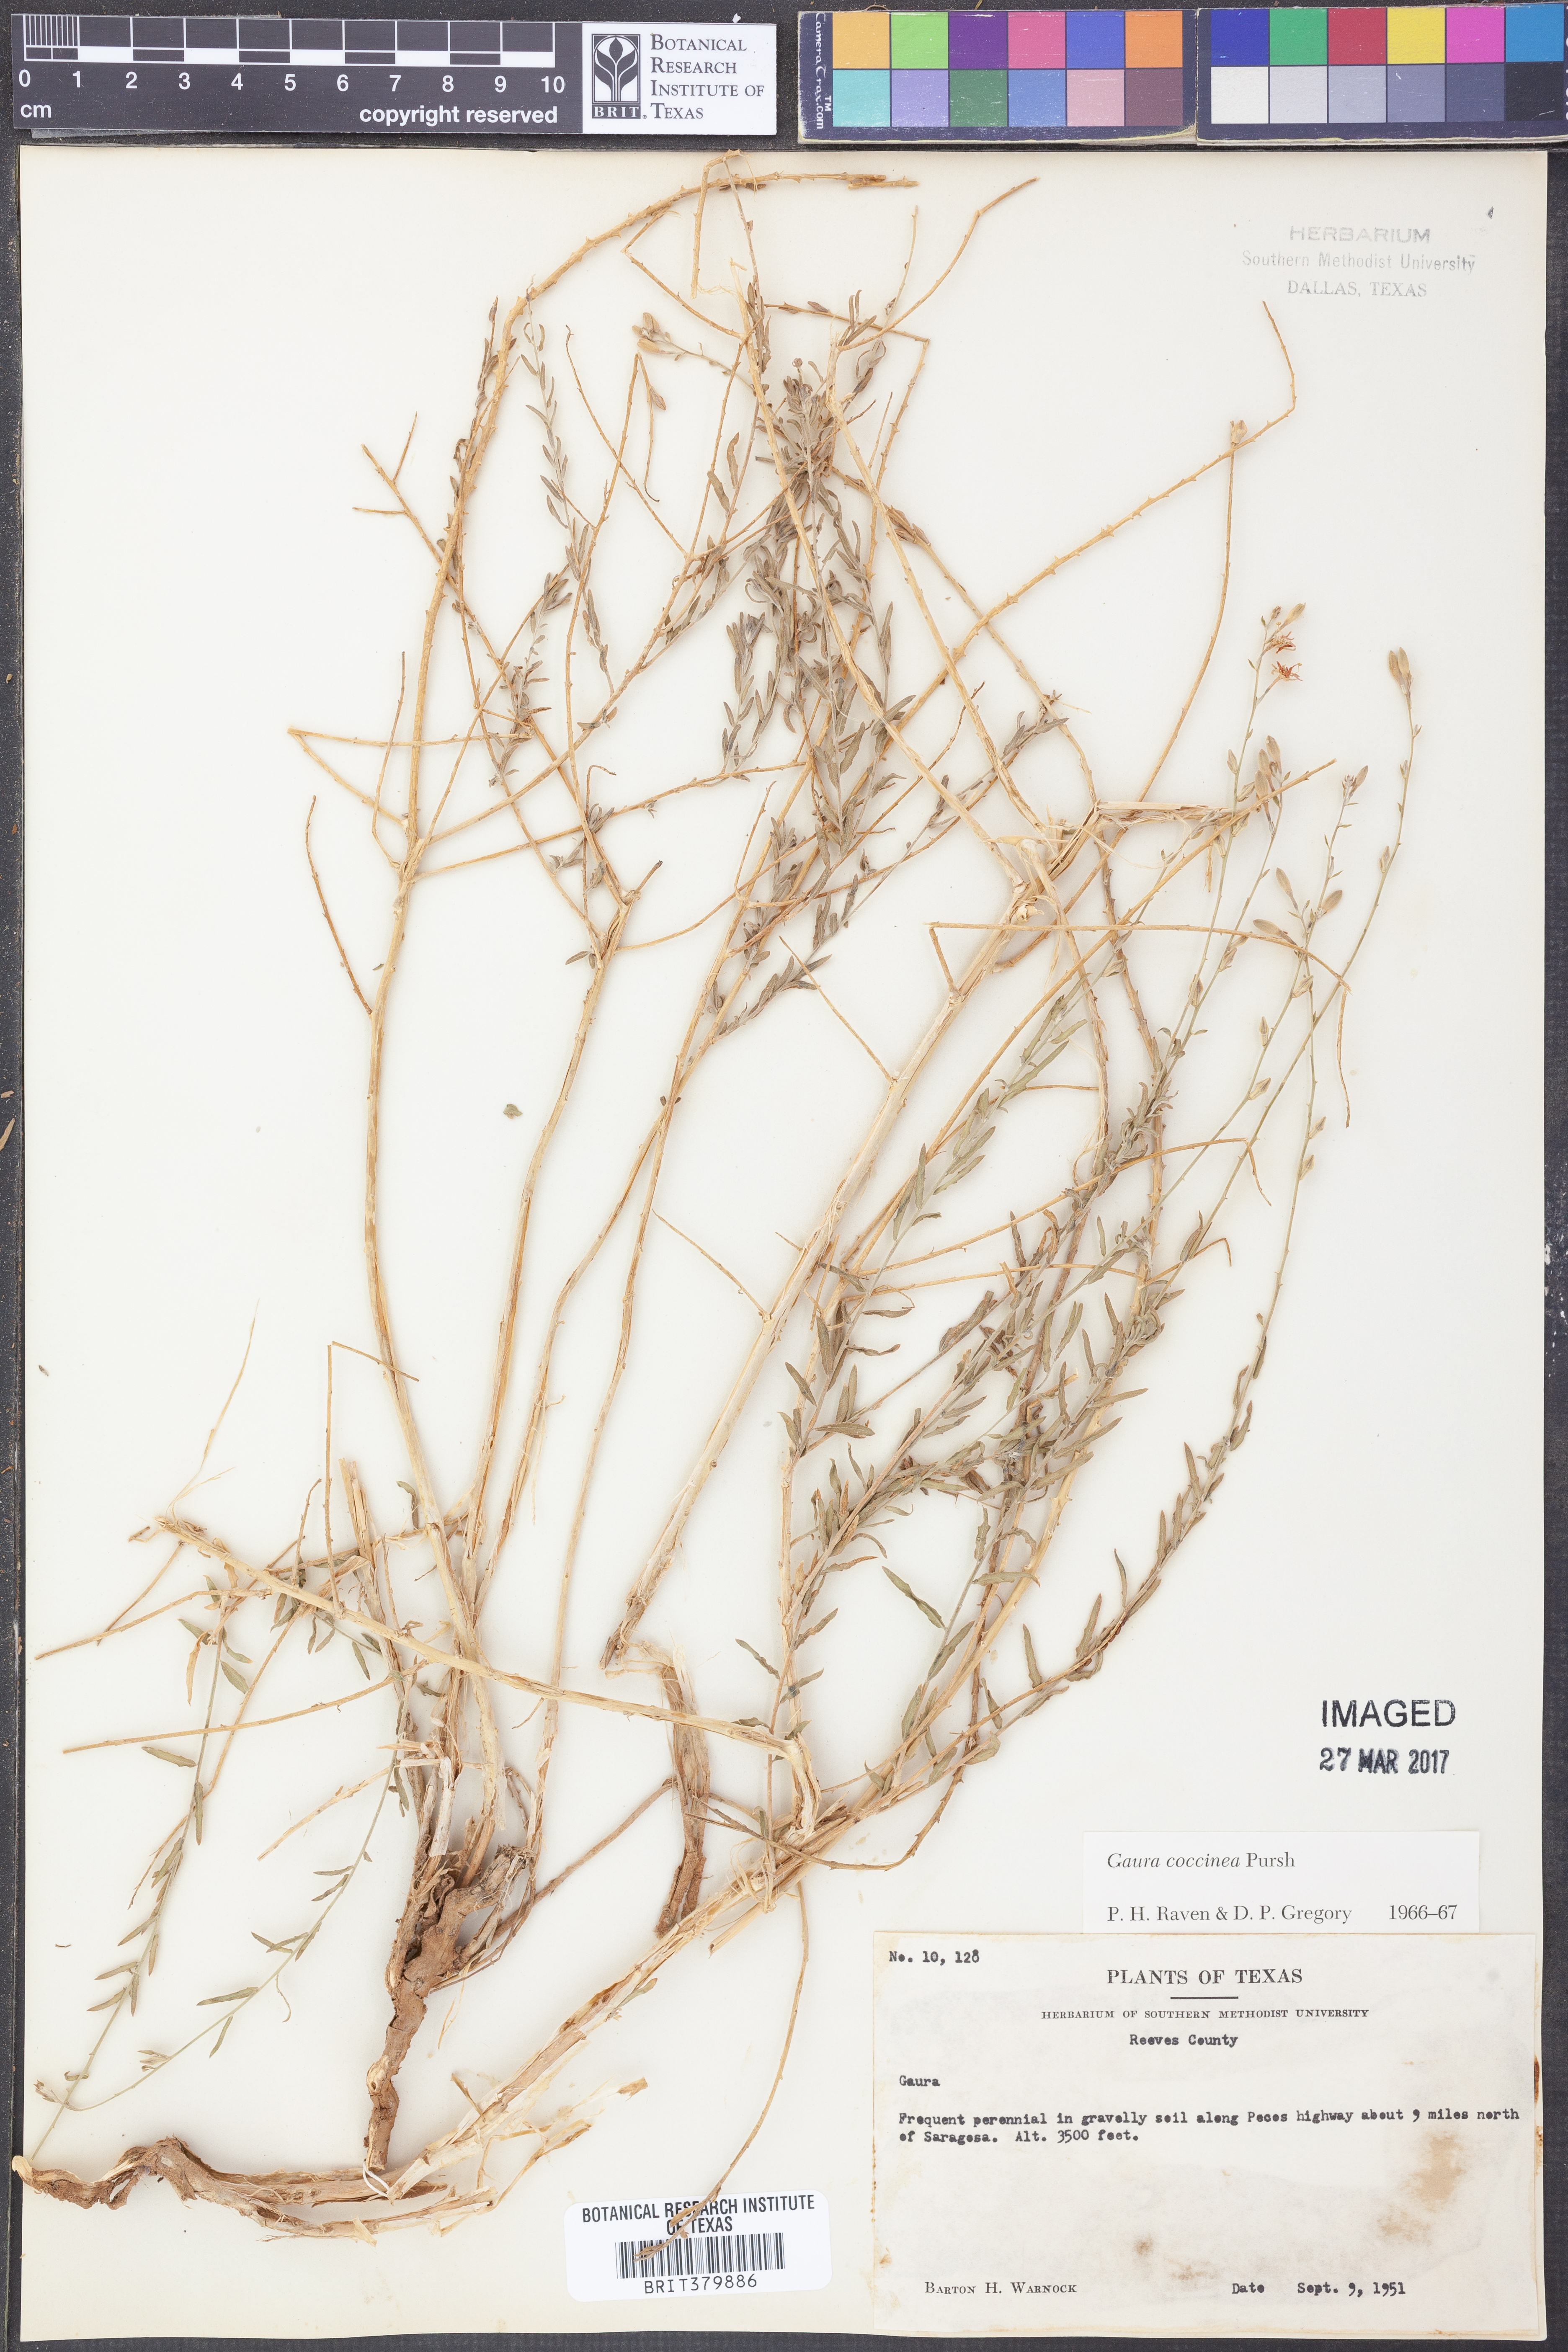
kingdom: Plantae
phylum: Tracheophyta
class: Magnoliopsida
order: Myrtales
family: Onagraceae
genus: Oenothera
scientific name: Oenothera suffrutescens
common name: Scarlet beeblossom
